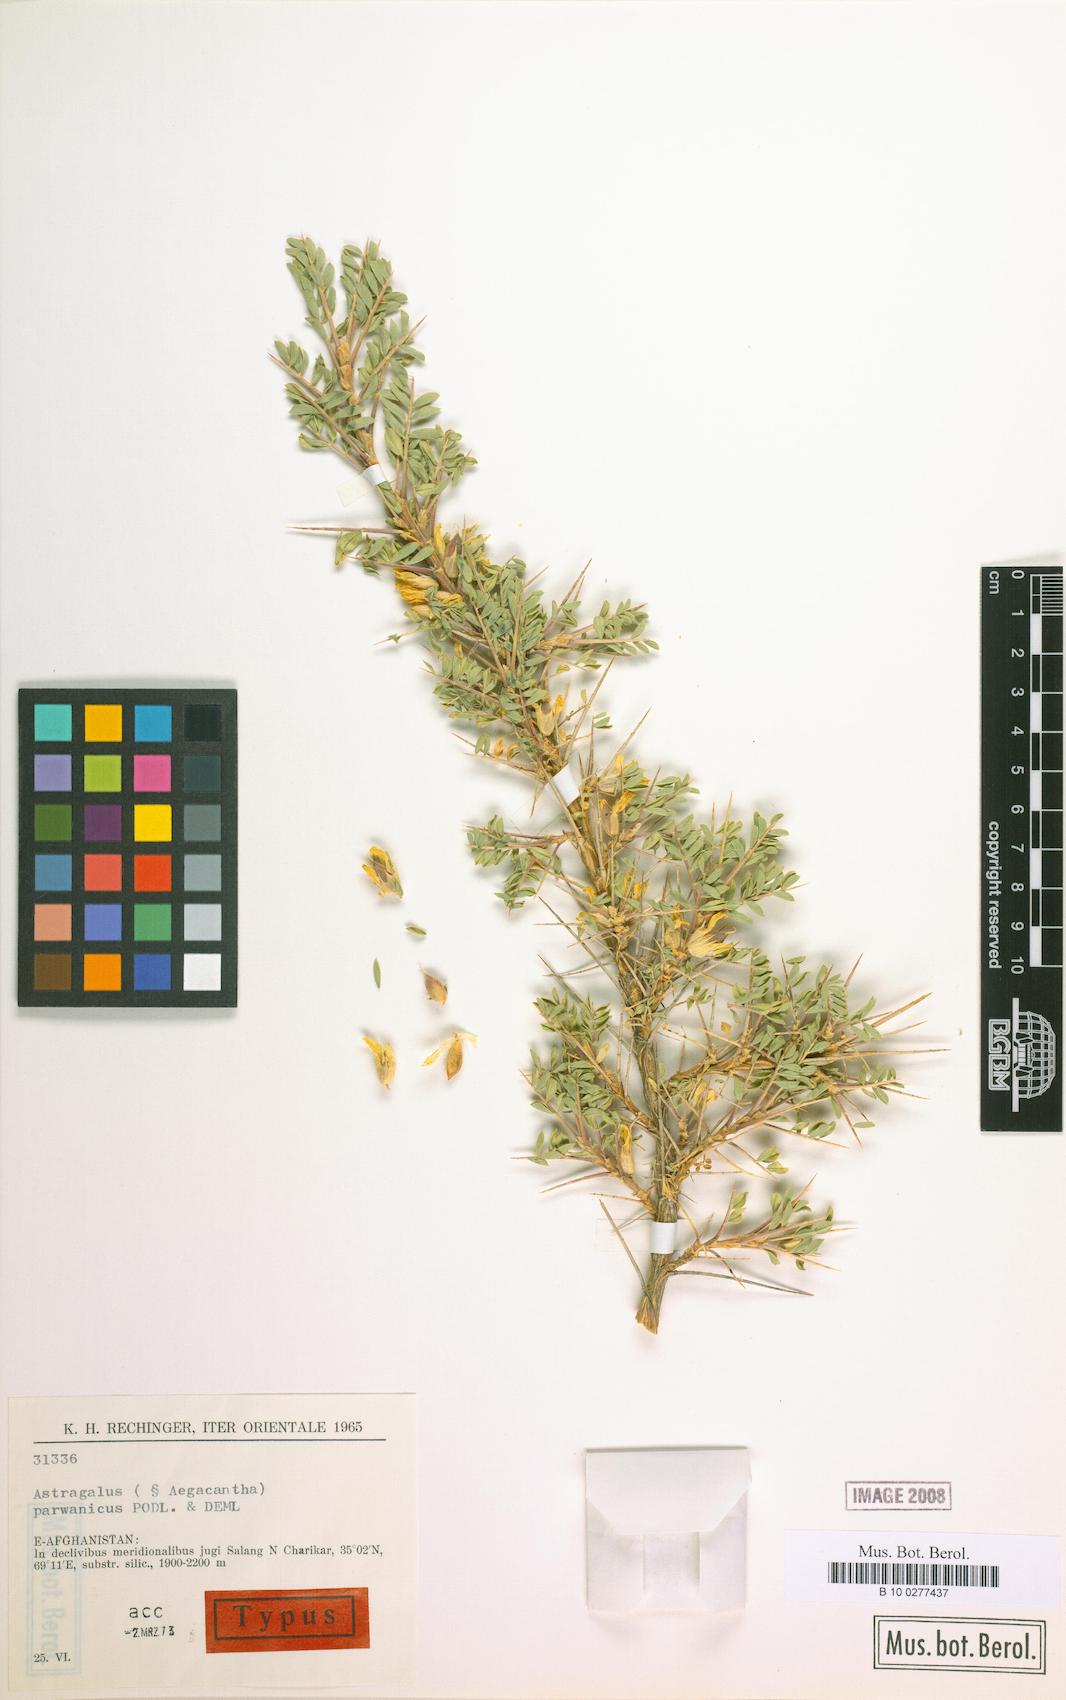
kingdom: Plantae
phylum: Tracheophyta
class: Magnoliopsida
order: Fabales
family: Fabaceae
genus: Astragalus
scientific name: Astragalus parwanicus
